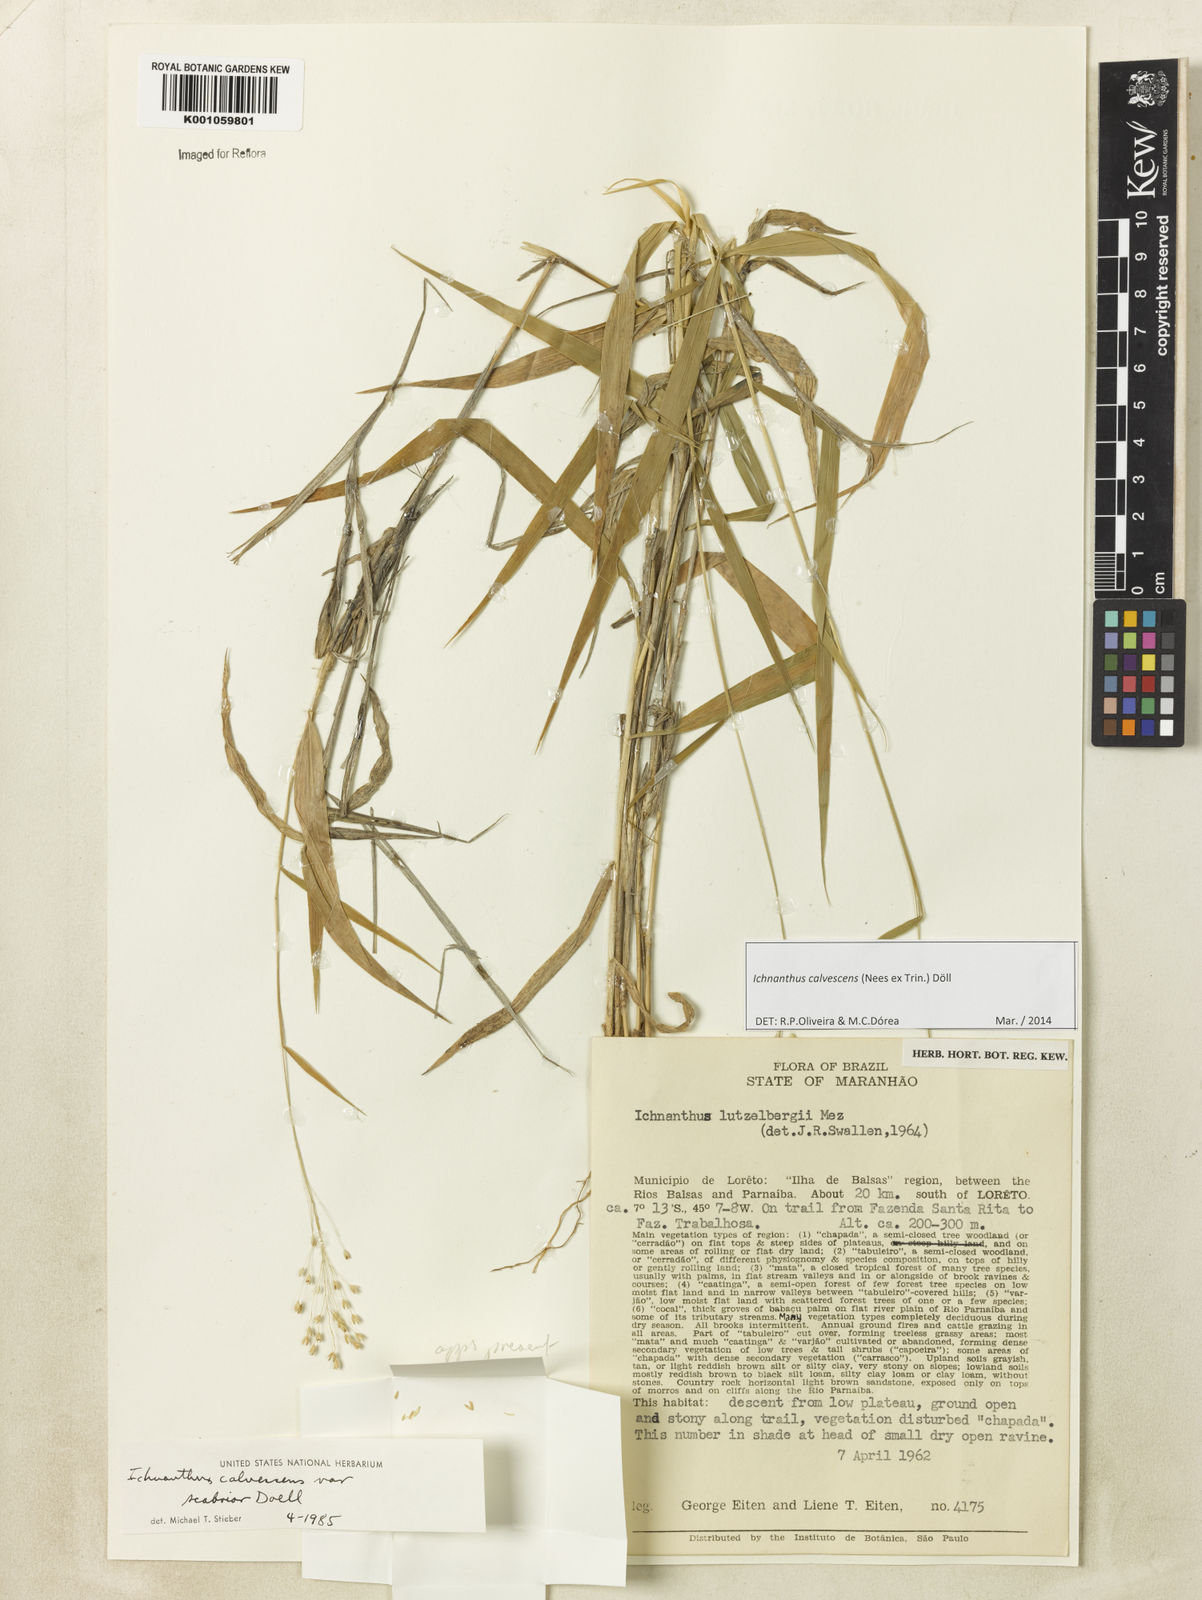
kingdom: Plantae
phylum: Tracheophyta
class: Liliopsida
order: Poales
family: Poaceae
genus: Ichnanthus
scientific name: Ichnanthus
